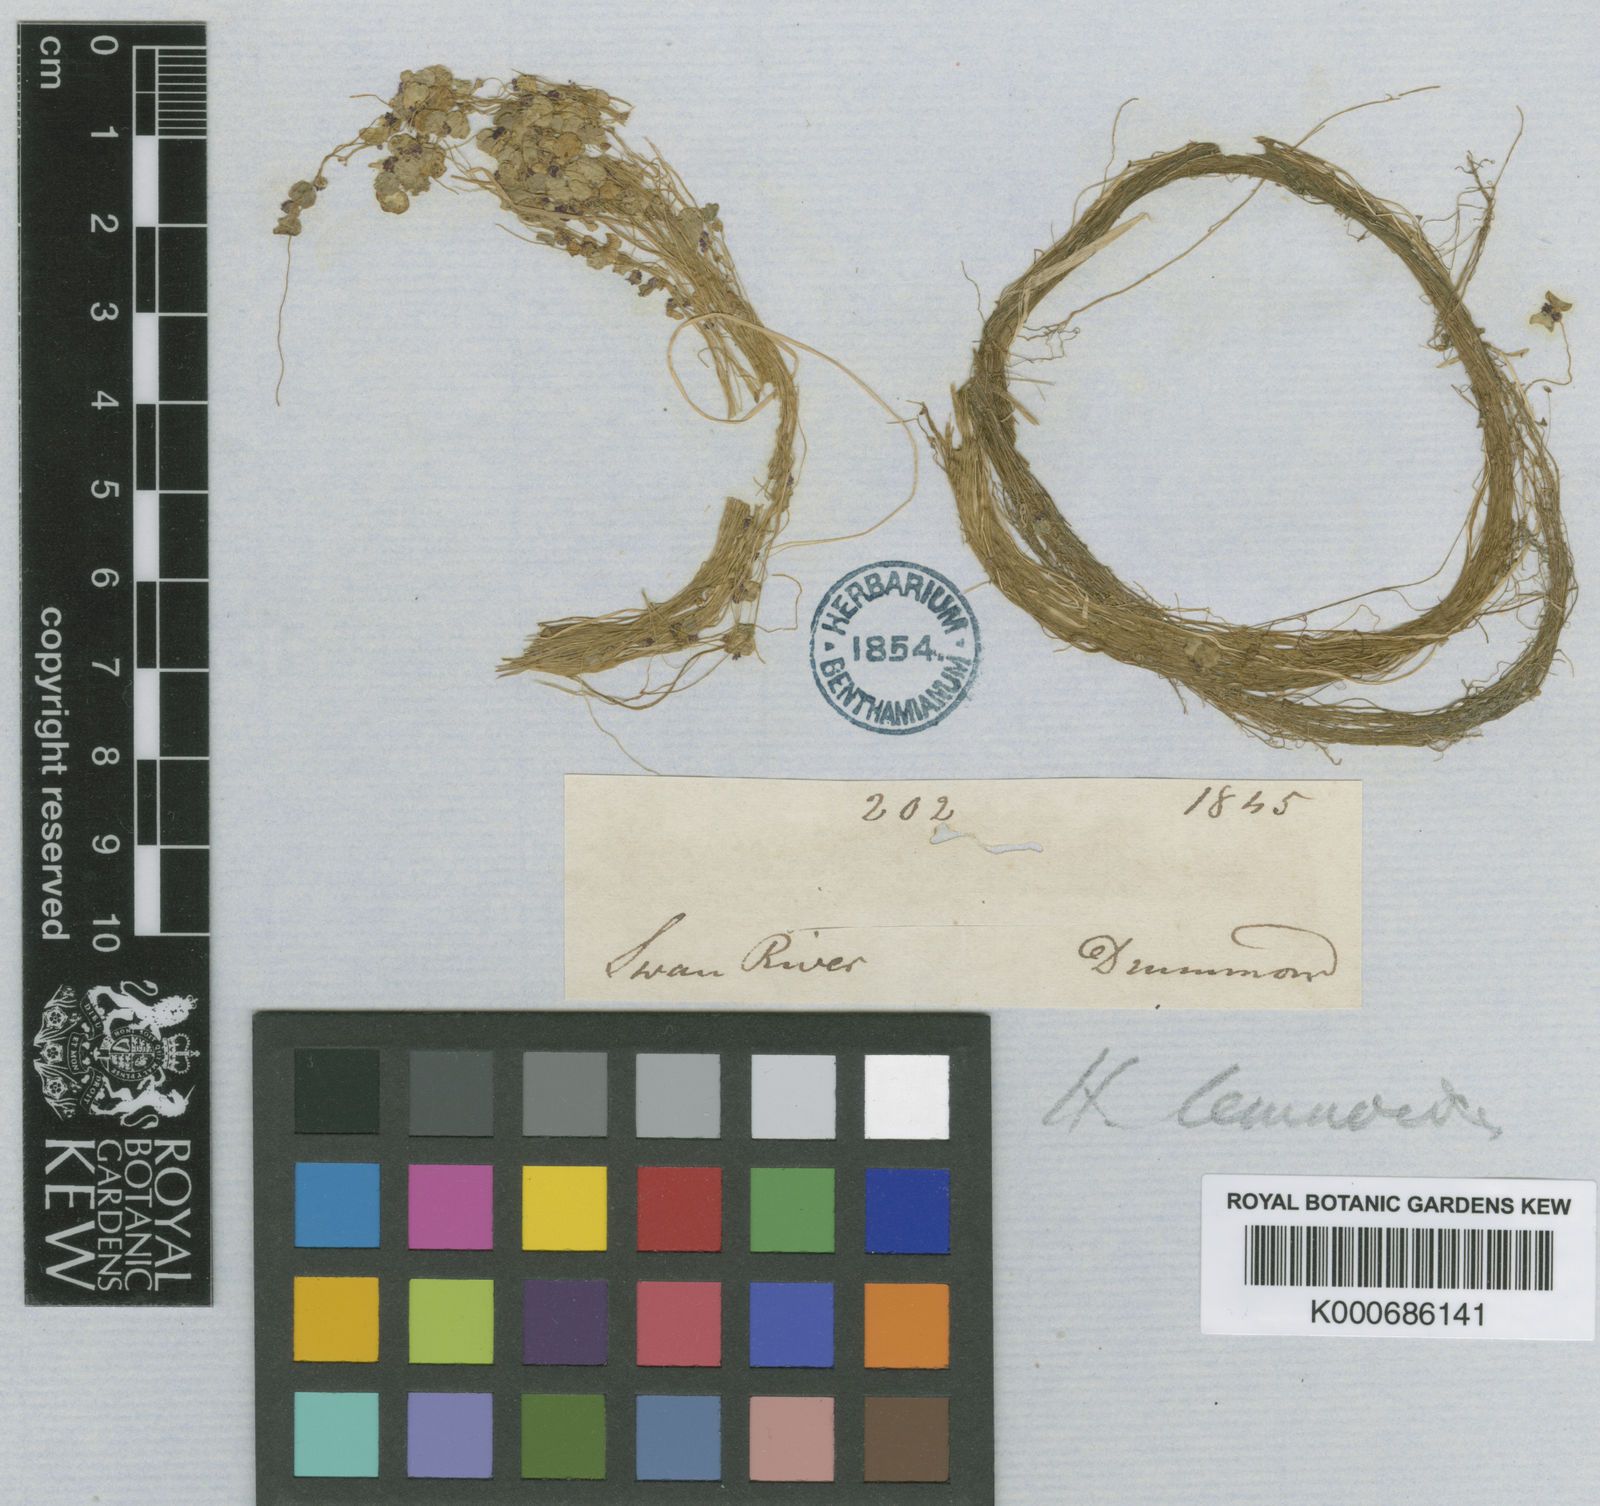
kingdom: Plantae
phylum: Tracheophyta
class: Magnoliopsida
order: Apiales
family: Araliaceae
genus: Hydrocotyle
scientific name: Hydrocotyle lemnoides
